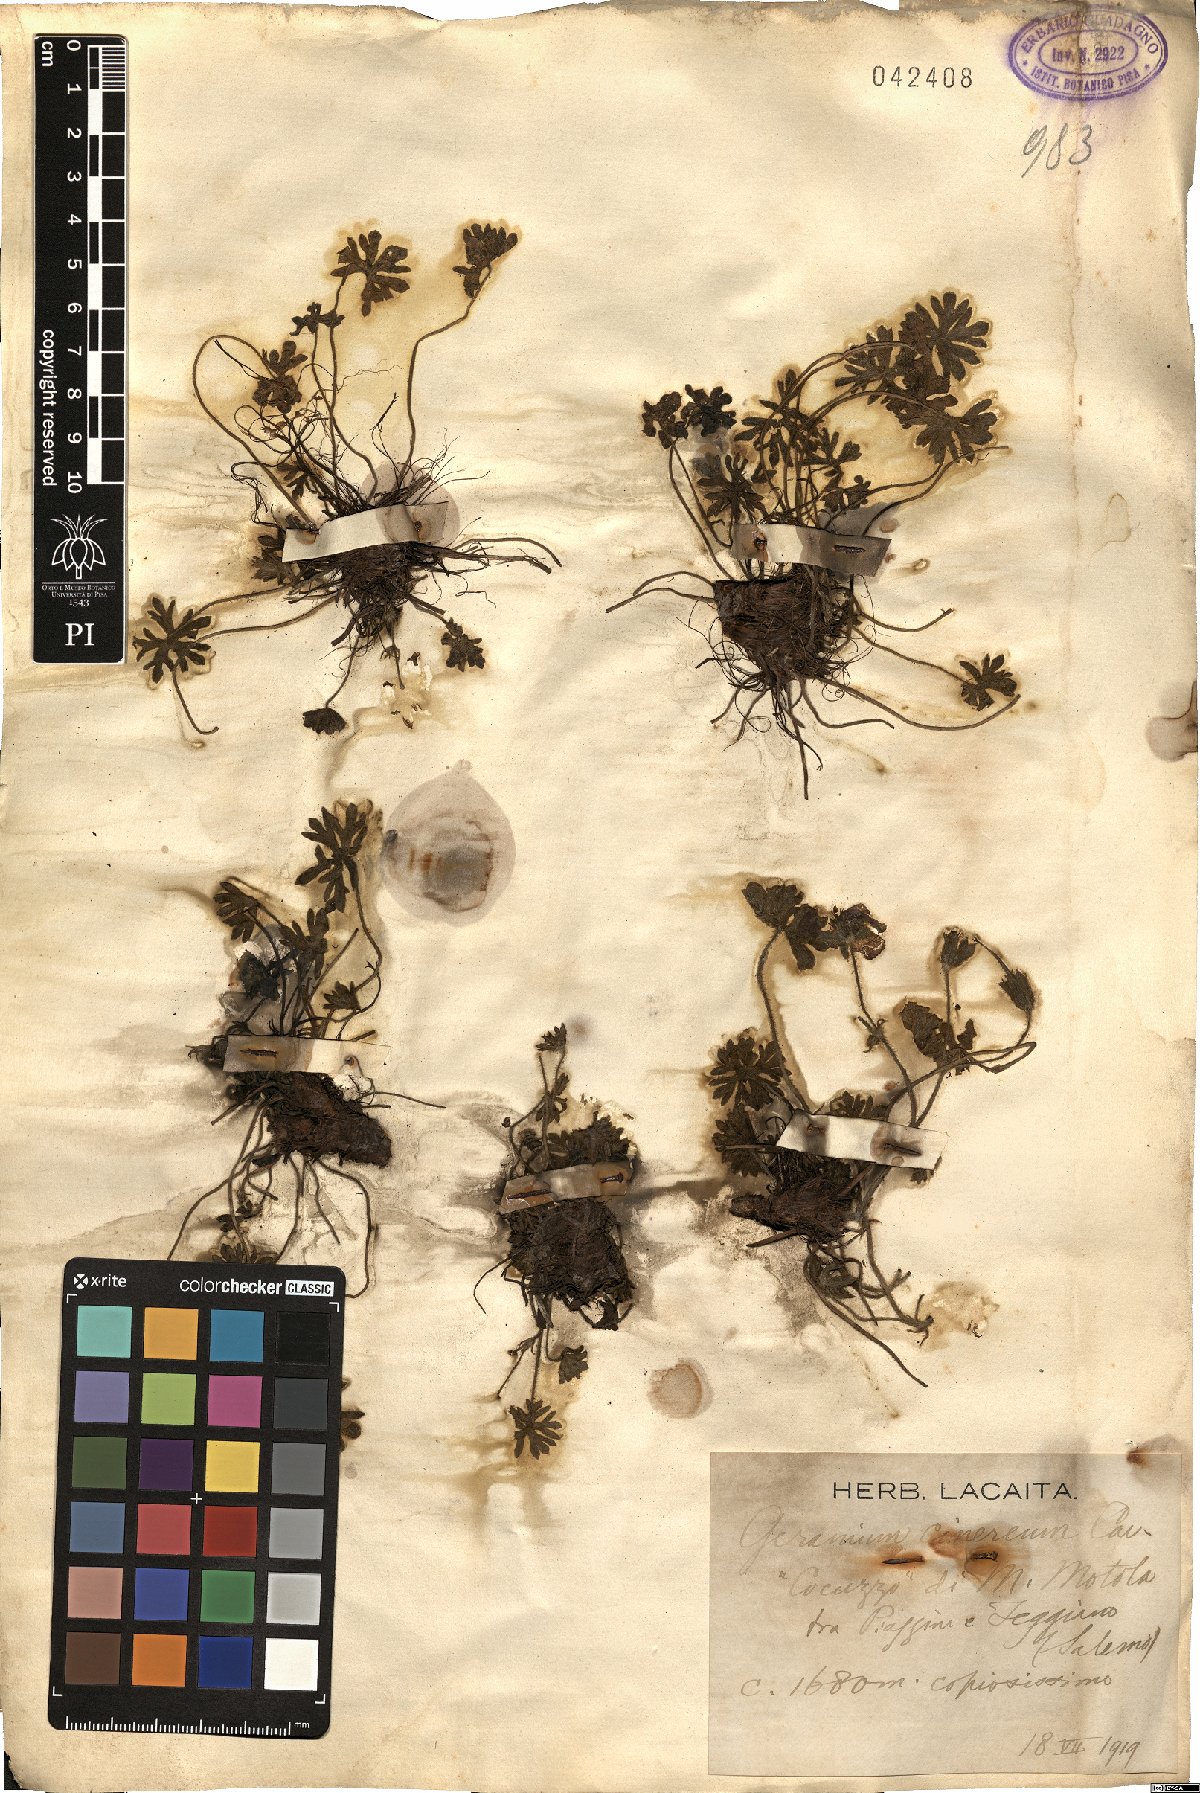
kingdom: Plantae
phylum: Tracheophyta
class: Magnoliopsida
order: Geraniales
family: Geraniaceae
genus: Geranium
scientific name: Geranium cinereum
